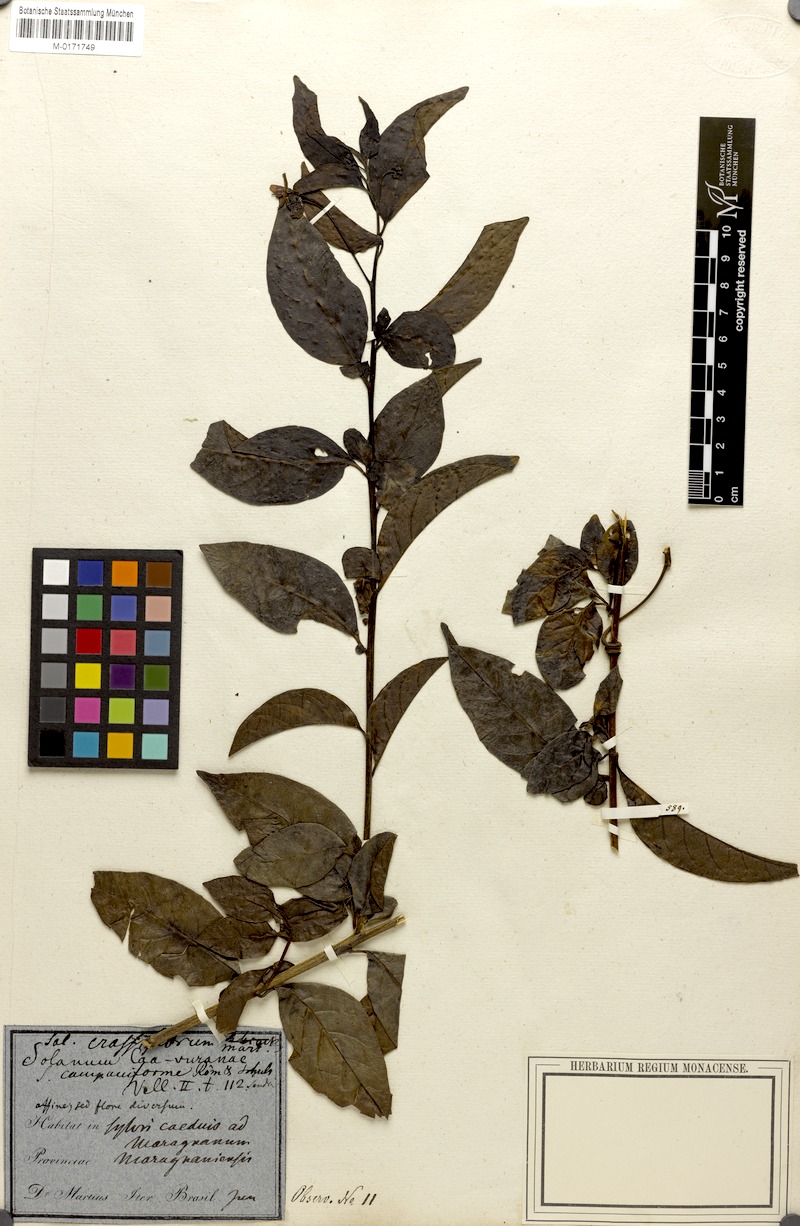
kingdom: Plantae
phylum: Tracheophyta
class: Magnoliopsida
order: Solanales
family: Solanaceae
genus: Solanum
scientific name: Solanum campaniforme
